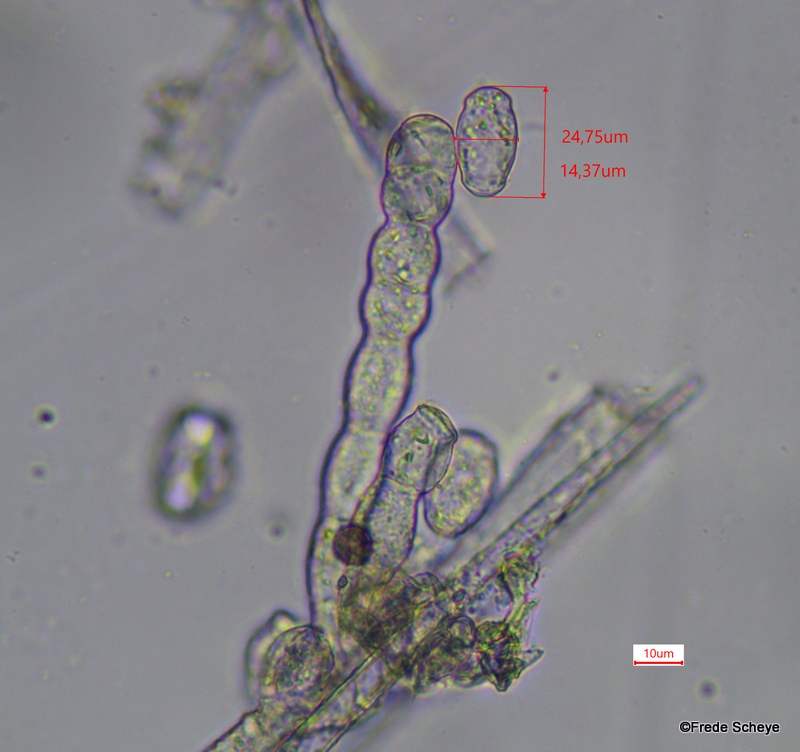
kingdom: Fungi
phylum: Ascomycota
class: Leotiomycetes
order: Helotiales
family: Erysiphaceae
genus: Podosphaera
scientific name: Podosphaera mors-uvae
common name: American gooseberry mildew
